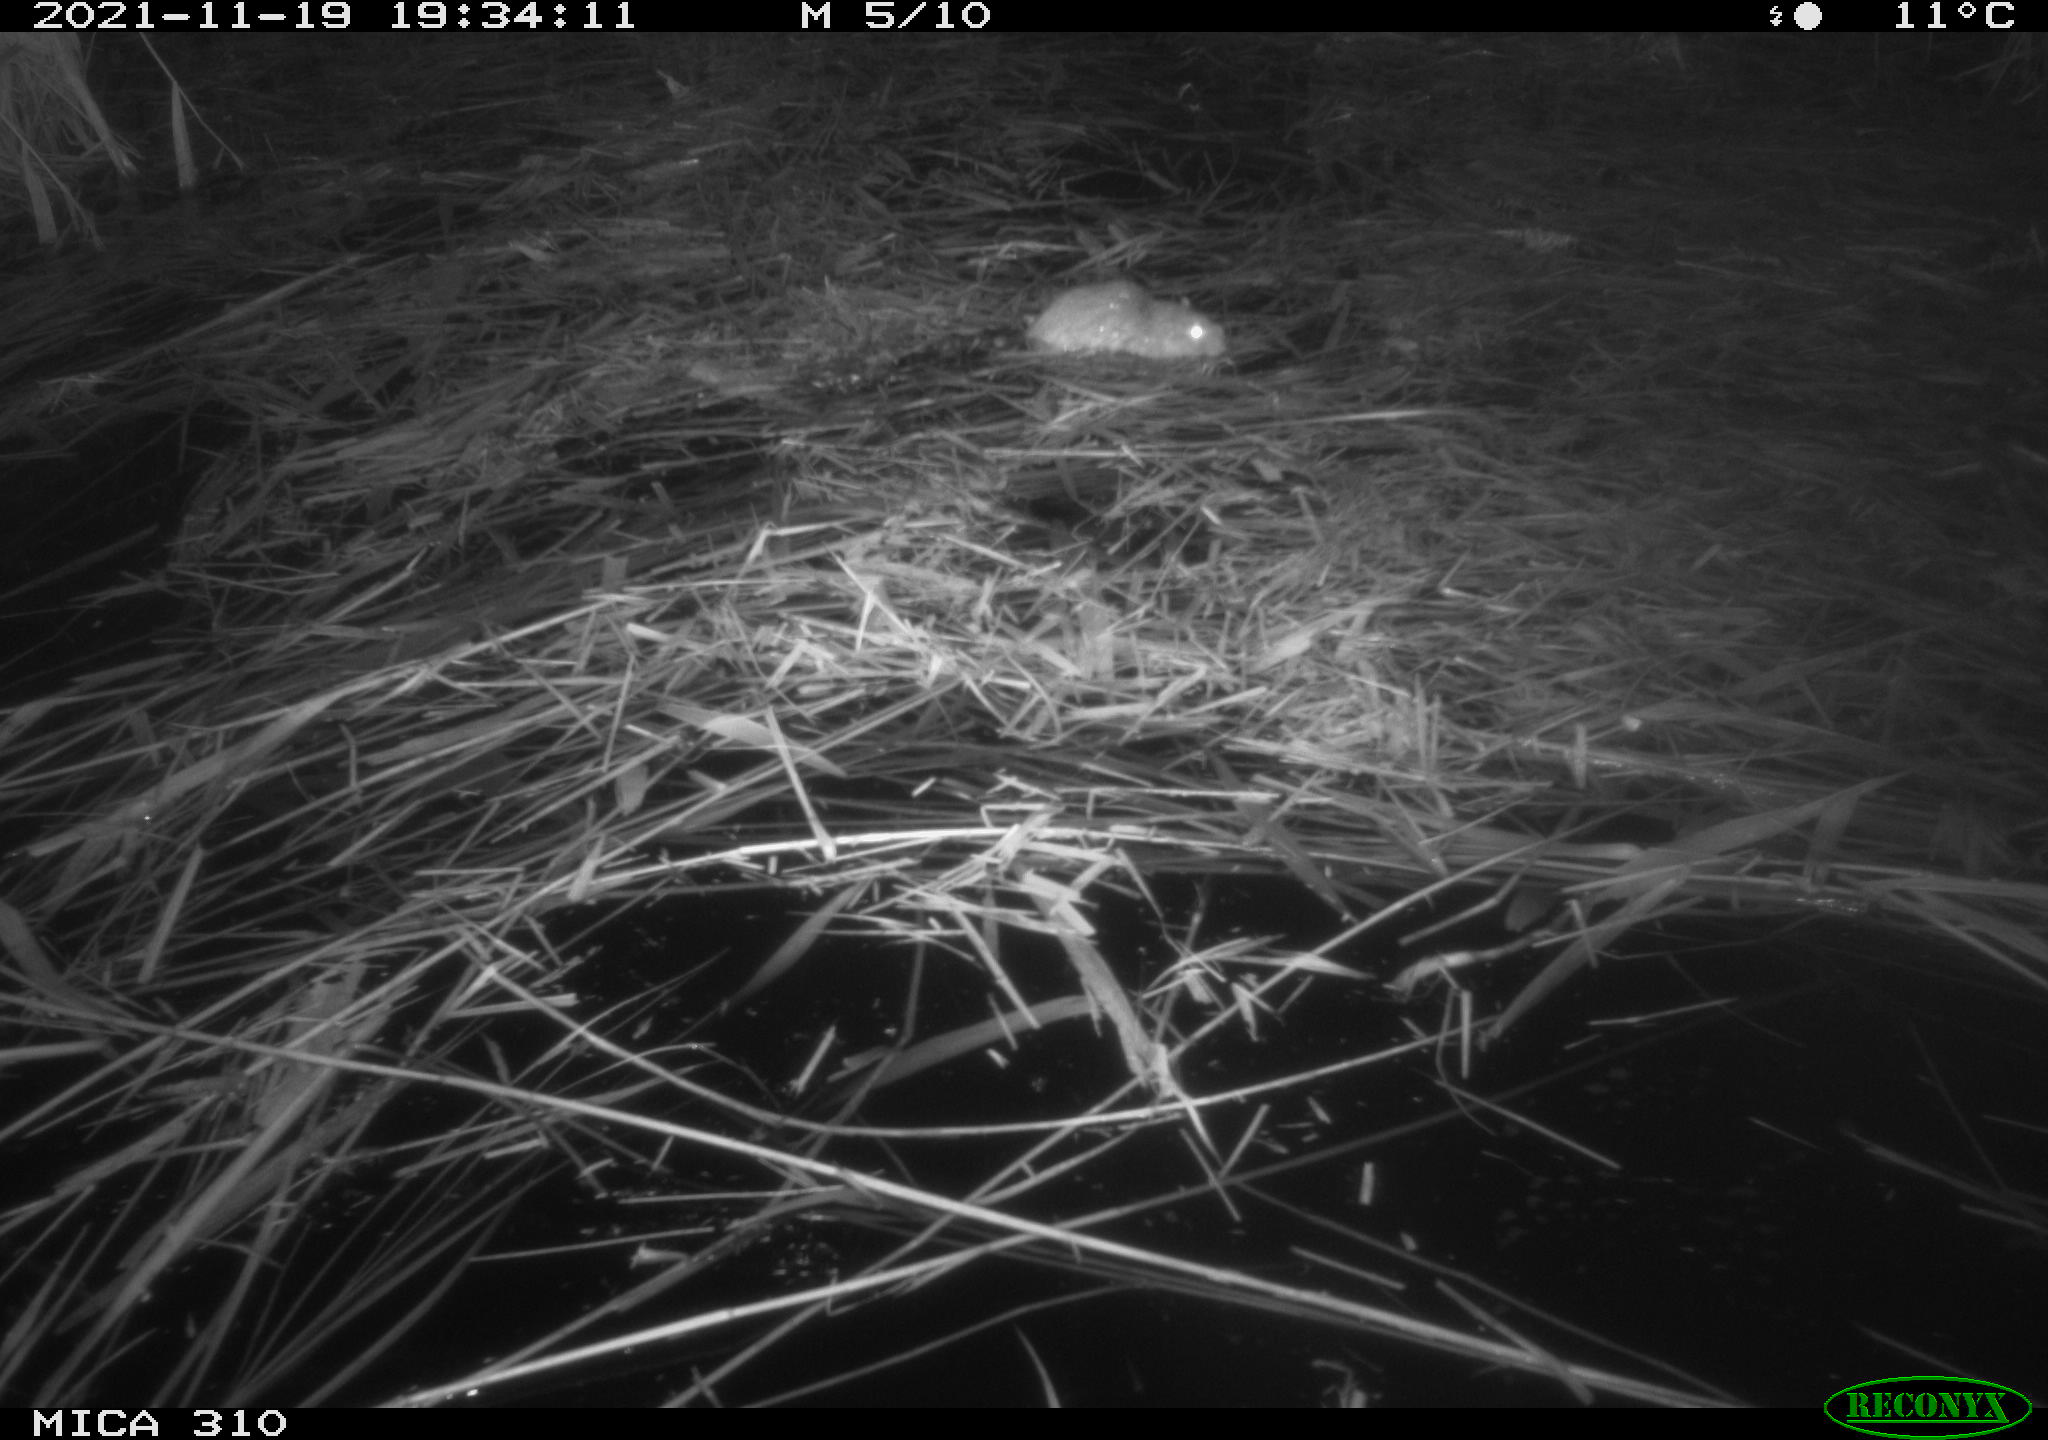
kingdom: Animalia
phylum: Chordata
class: Mammalia
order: Rodentia
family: Muridae
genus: Rattus
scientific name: Rattus norvegicus
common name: Brown rat
